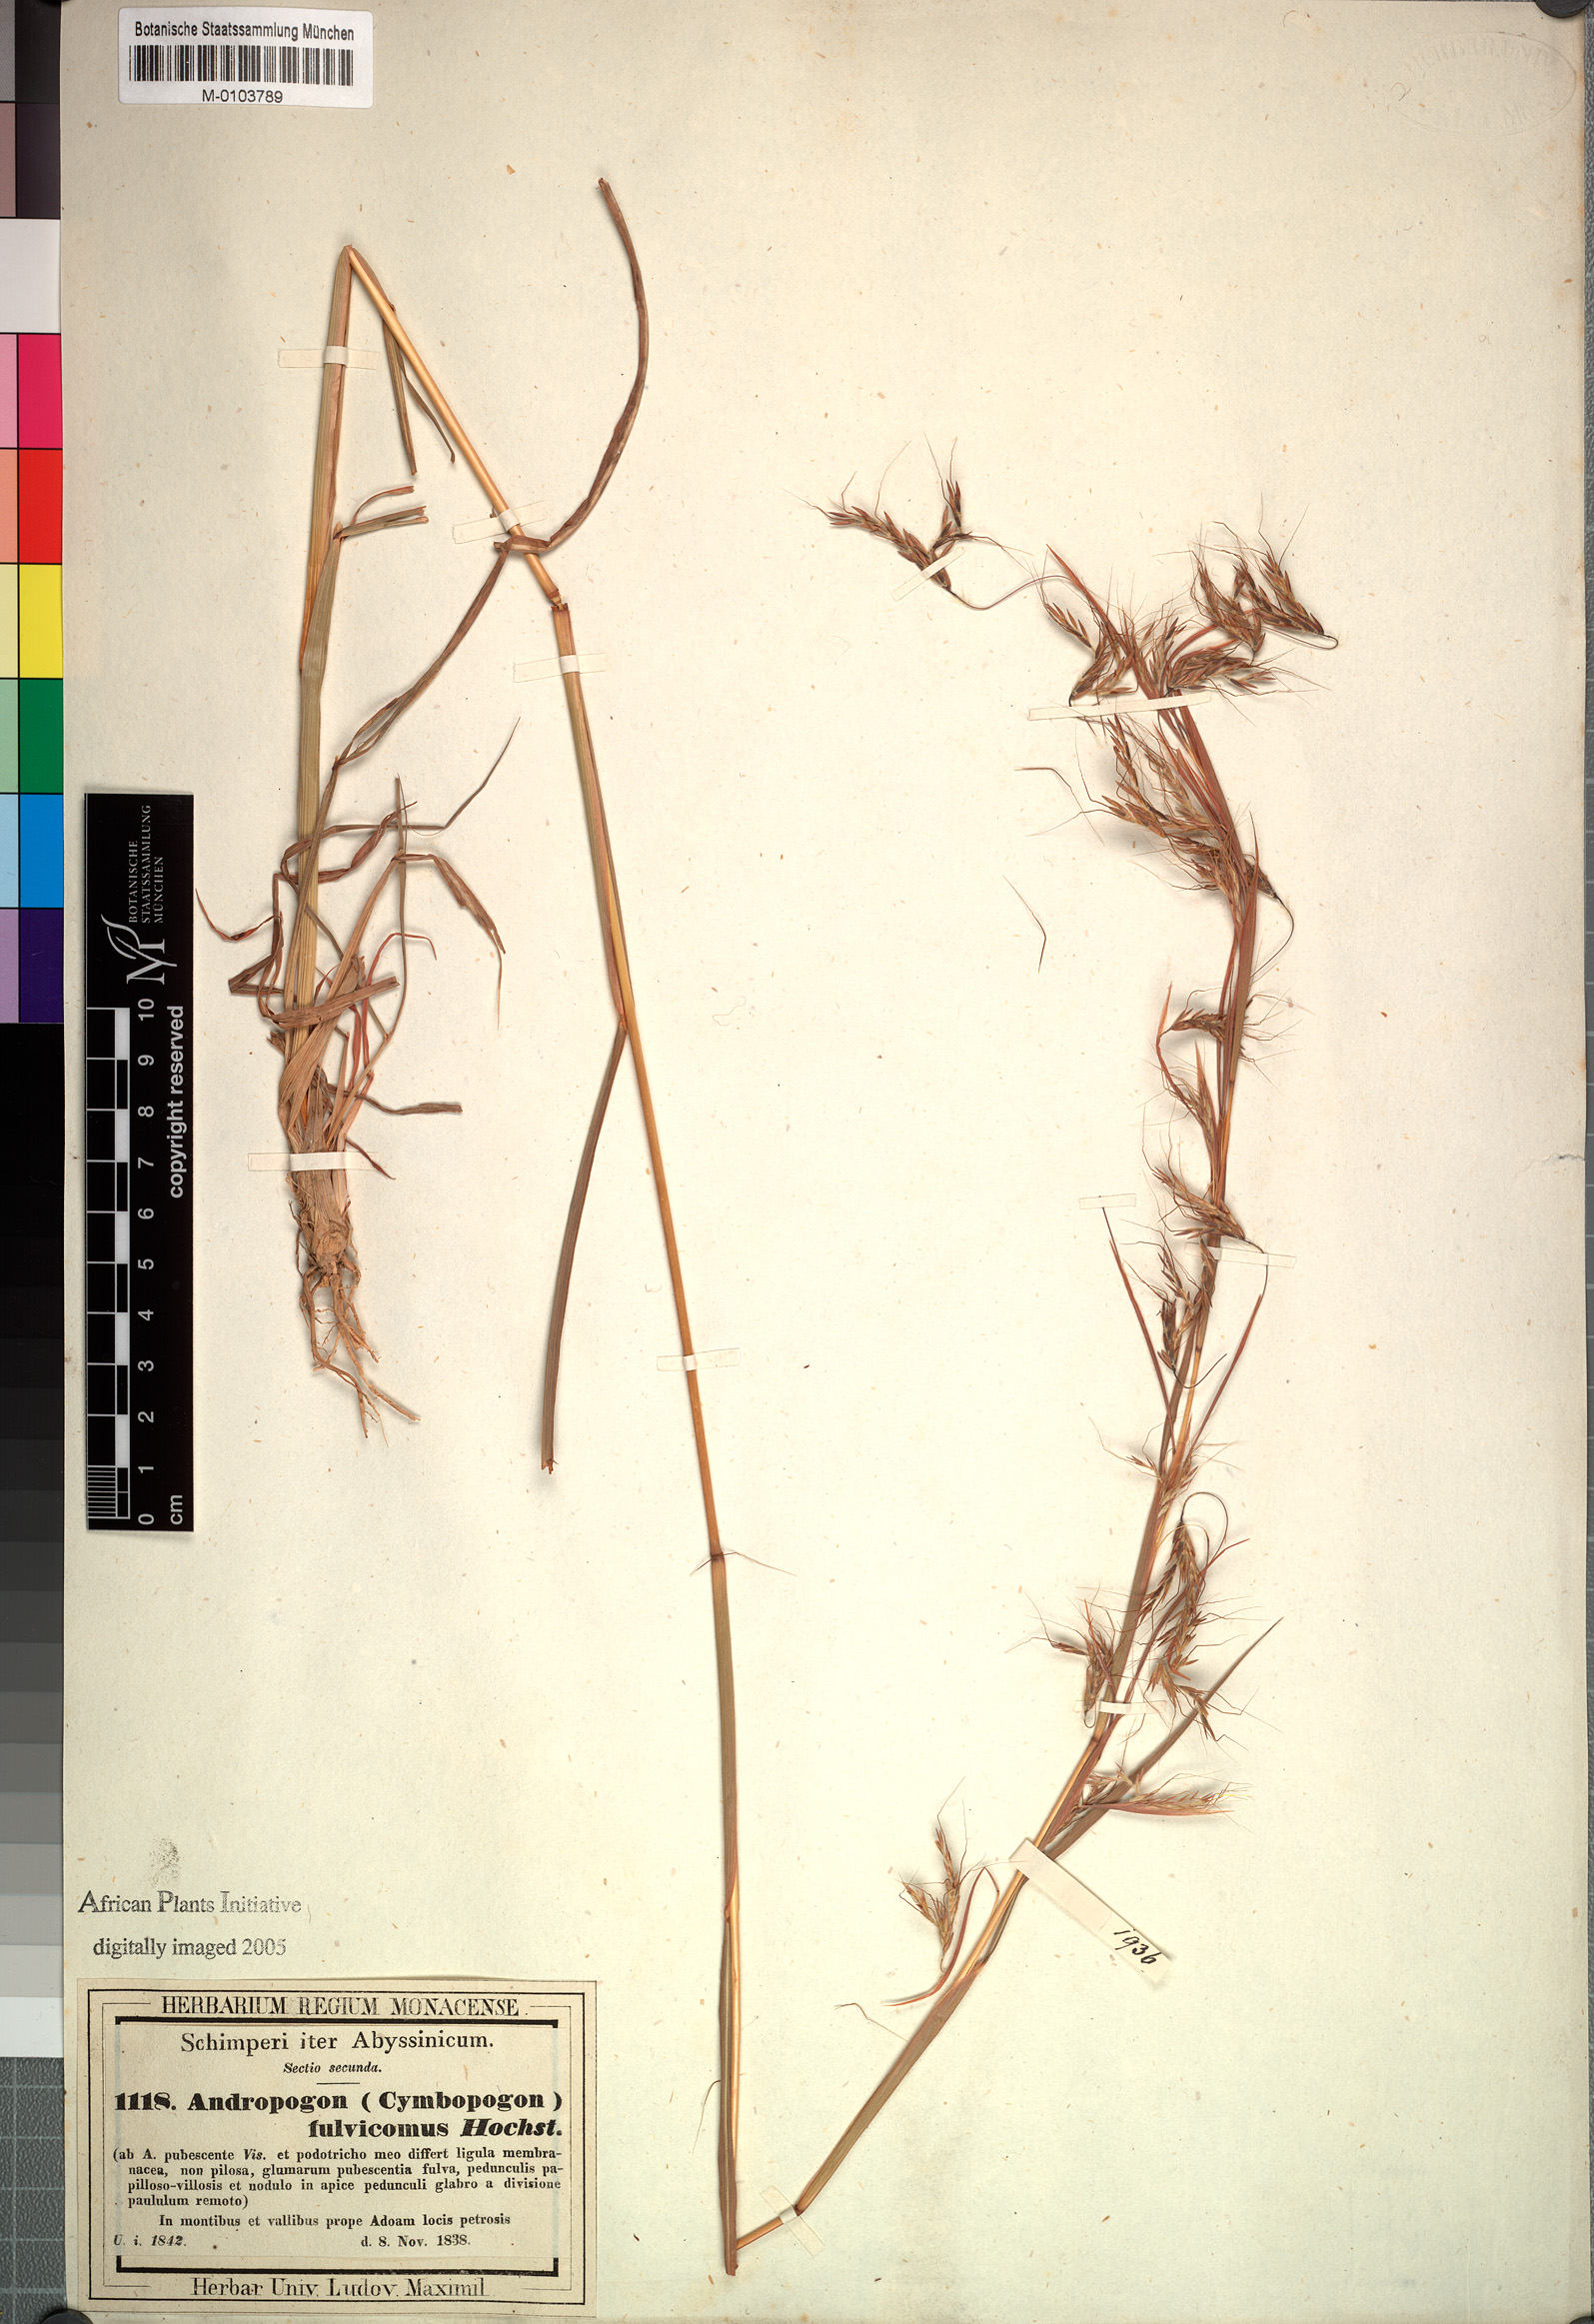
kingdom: Plantae
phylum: Tracheophyta
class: Liliopsida
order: Poales
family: Poaceae
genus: Hyparrhenia
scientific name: Hyparrhenia rufa
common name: Jaraguagrass
